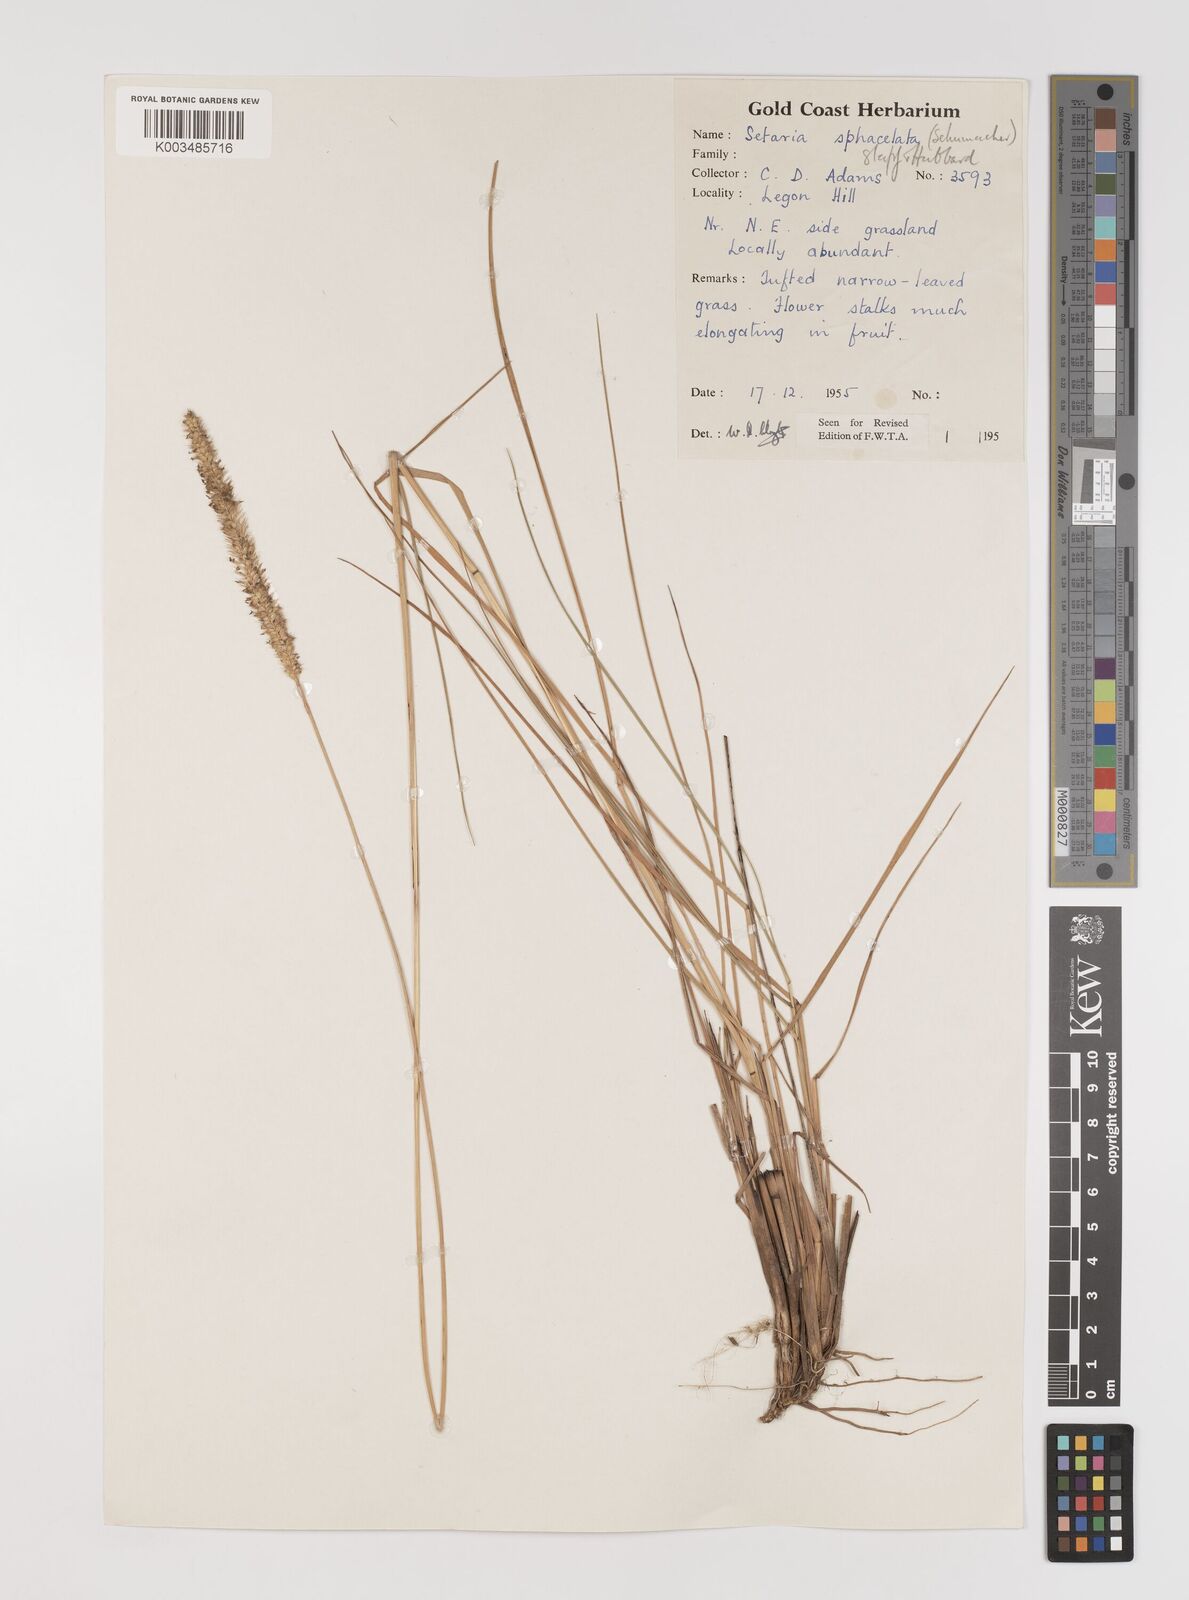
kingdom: Plantae
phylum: Tracheophyta
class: Liliopsida
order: Poales
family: Poaceae
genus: Setaria
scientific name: Setaria sphacelata
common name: African bristlegrass
